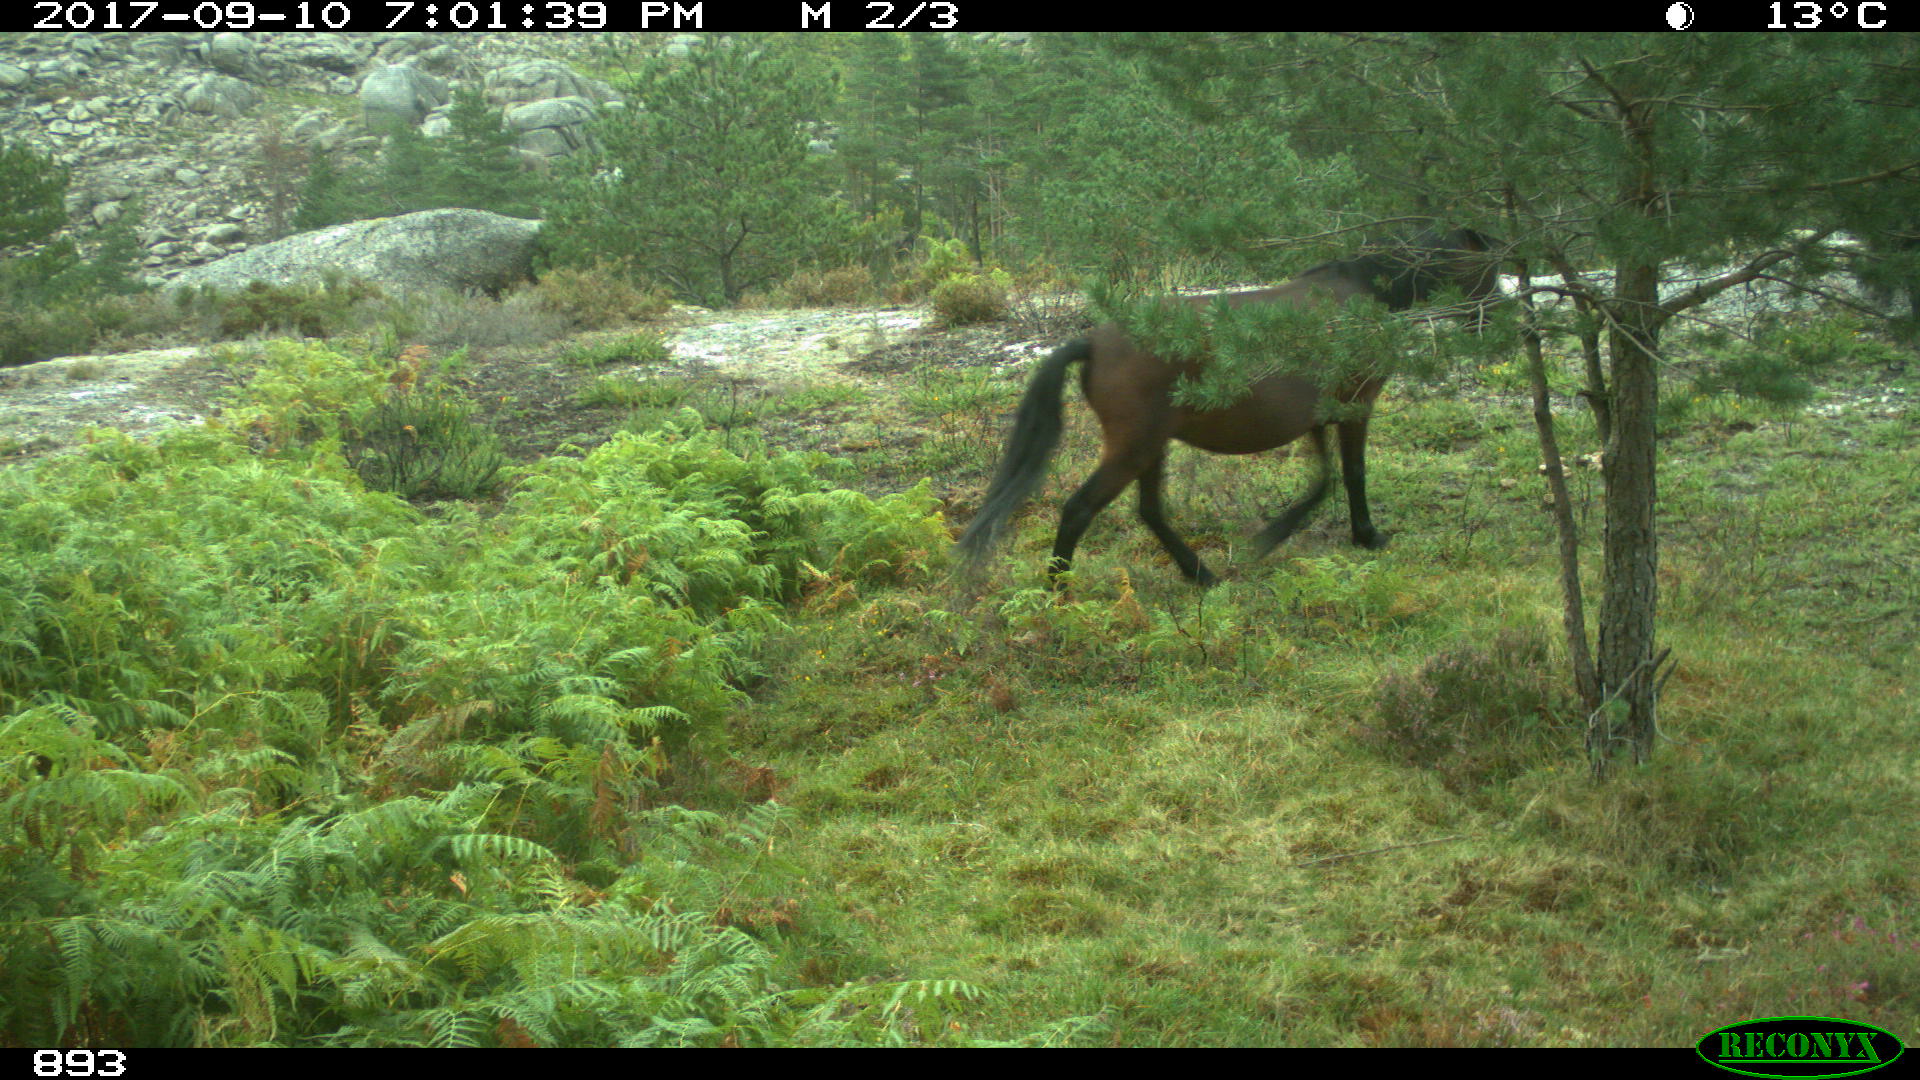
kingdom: Animalia
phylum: Chordata
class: Mammalia
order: Perissodactyla
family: Equidae
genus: Equus
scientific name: Equus caballus
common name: Horse
